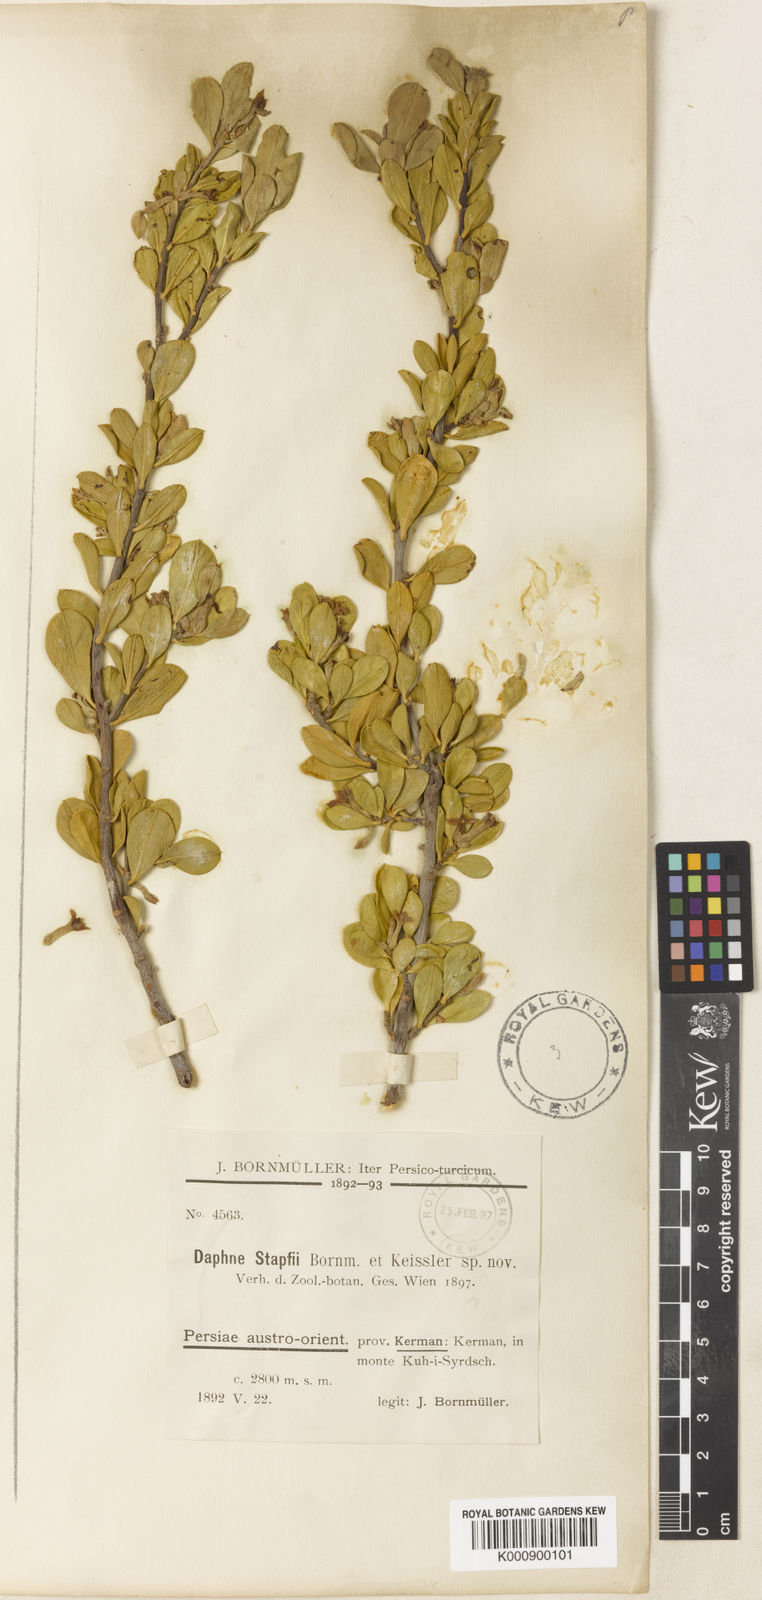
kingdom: Plantae
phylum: Tracheophyta
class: Magnoliopsida
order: Malvales
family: Thymelaeaceae
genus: Daphne
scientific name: Daphne stapfii
